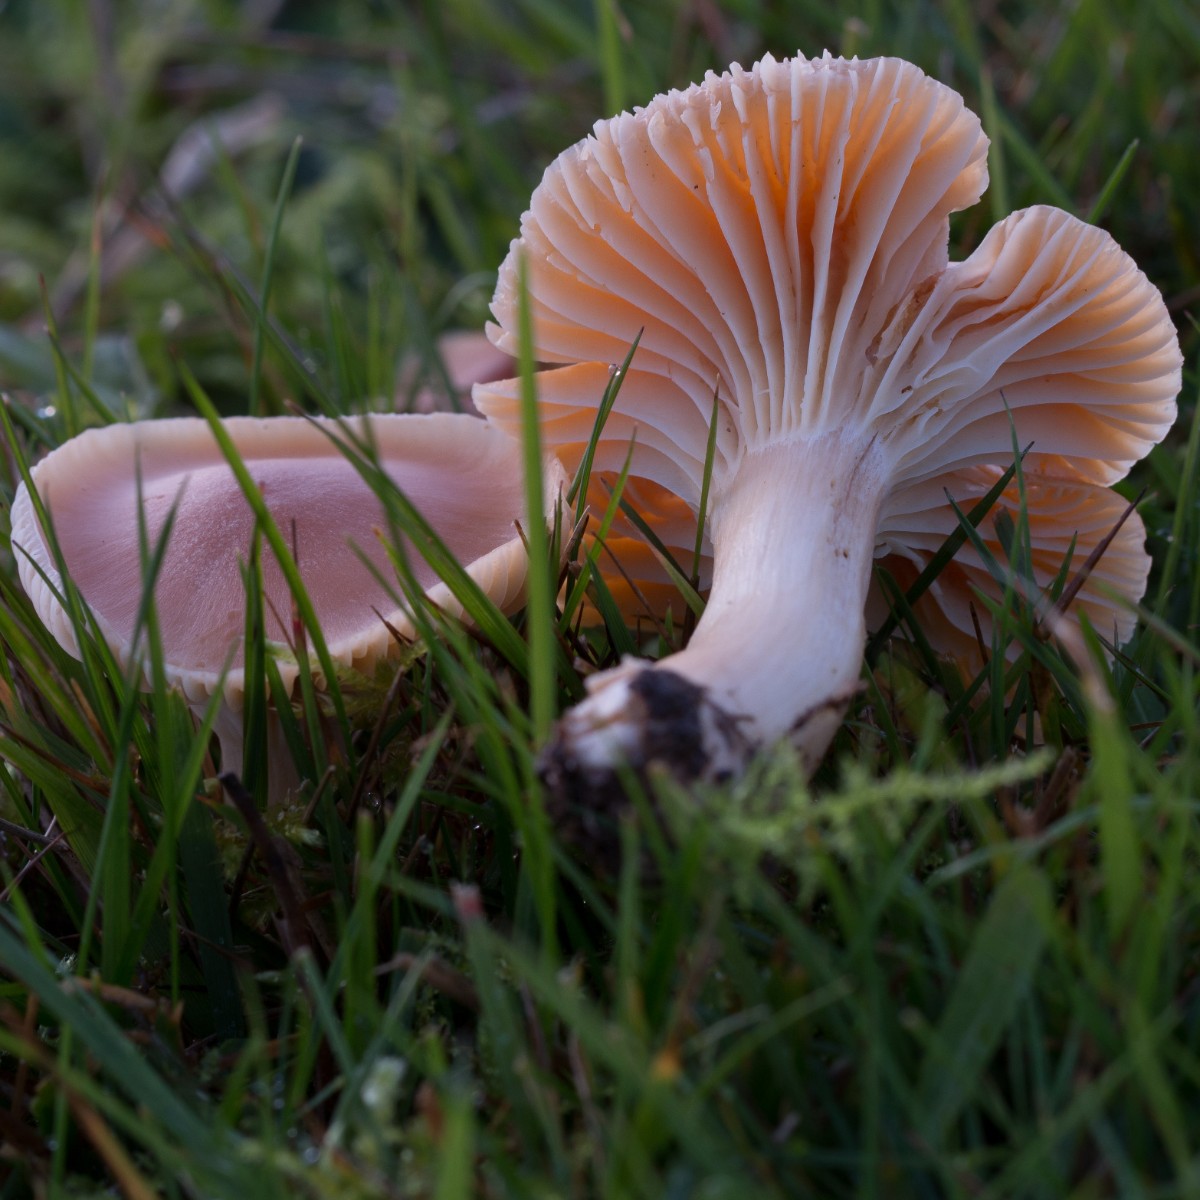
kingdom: Fungi
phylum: Basidiomycota
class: Agaricomycetes
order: Agaricales
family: Hygrophoraceae
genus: Cuphophyllus
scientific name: Cuphophyllus pratensis
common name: eng-vokshat
